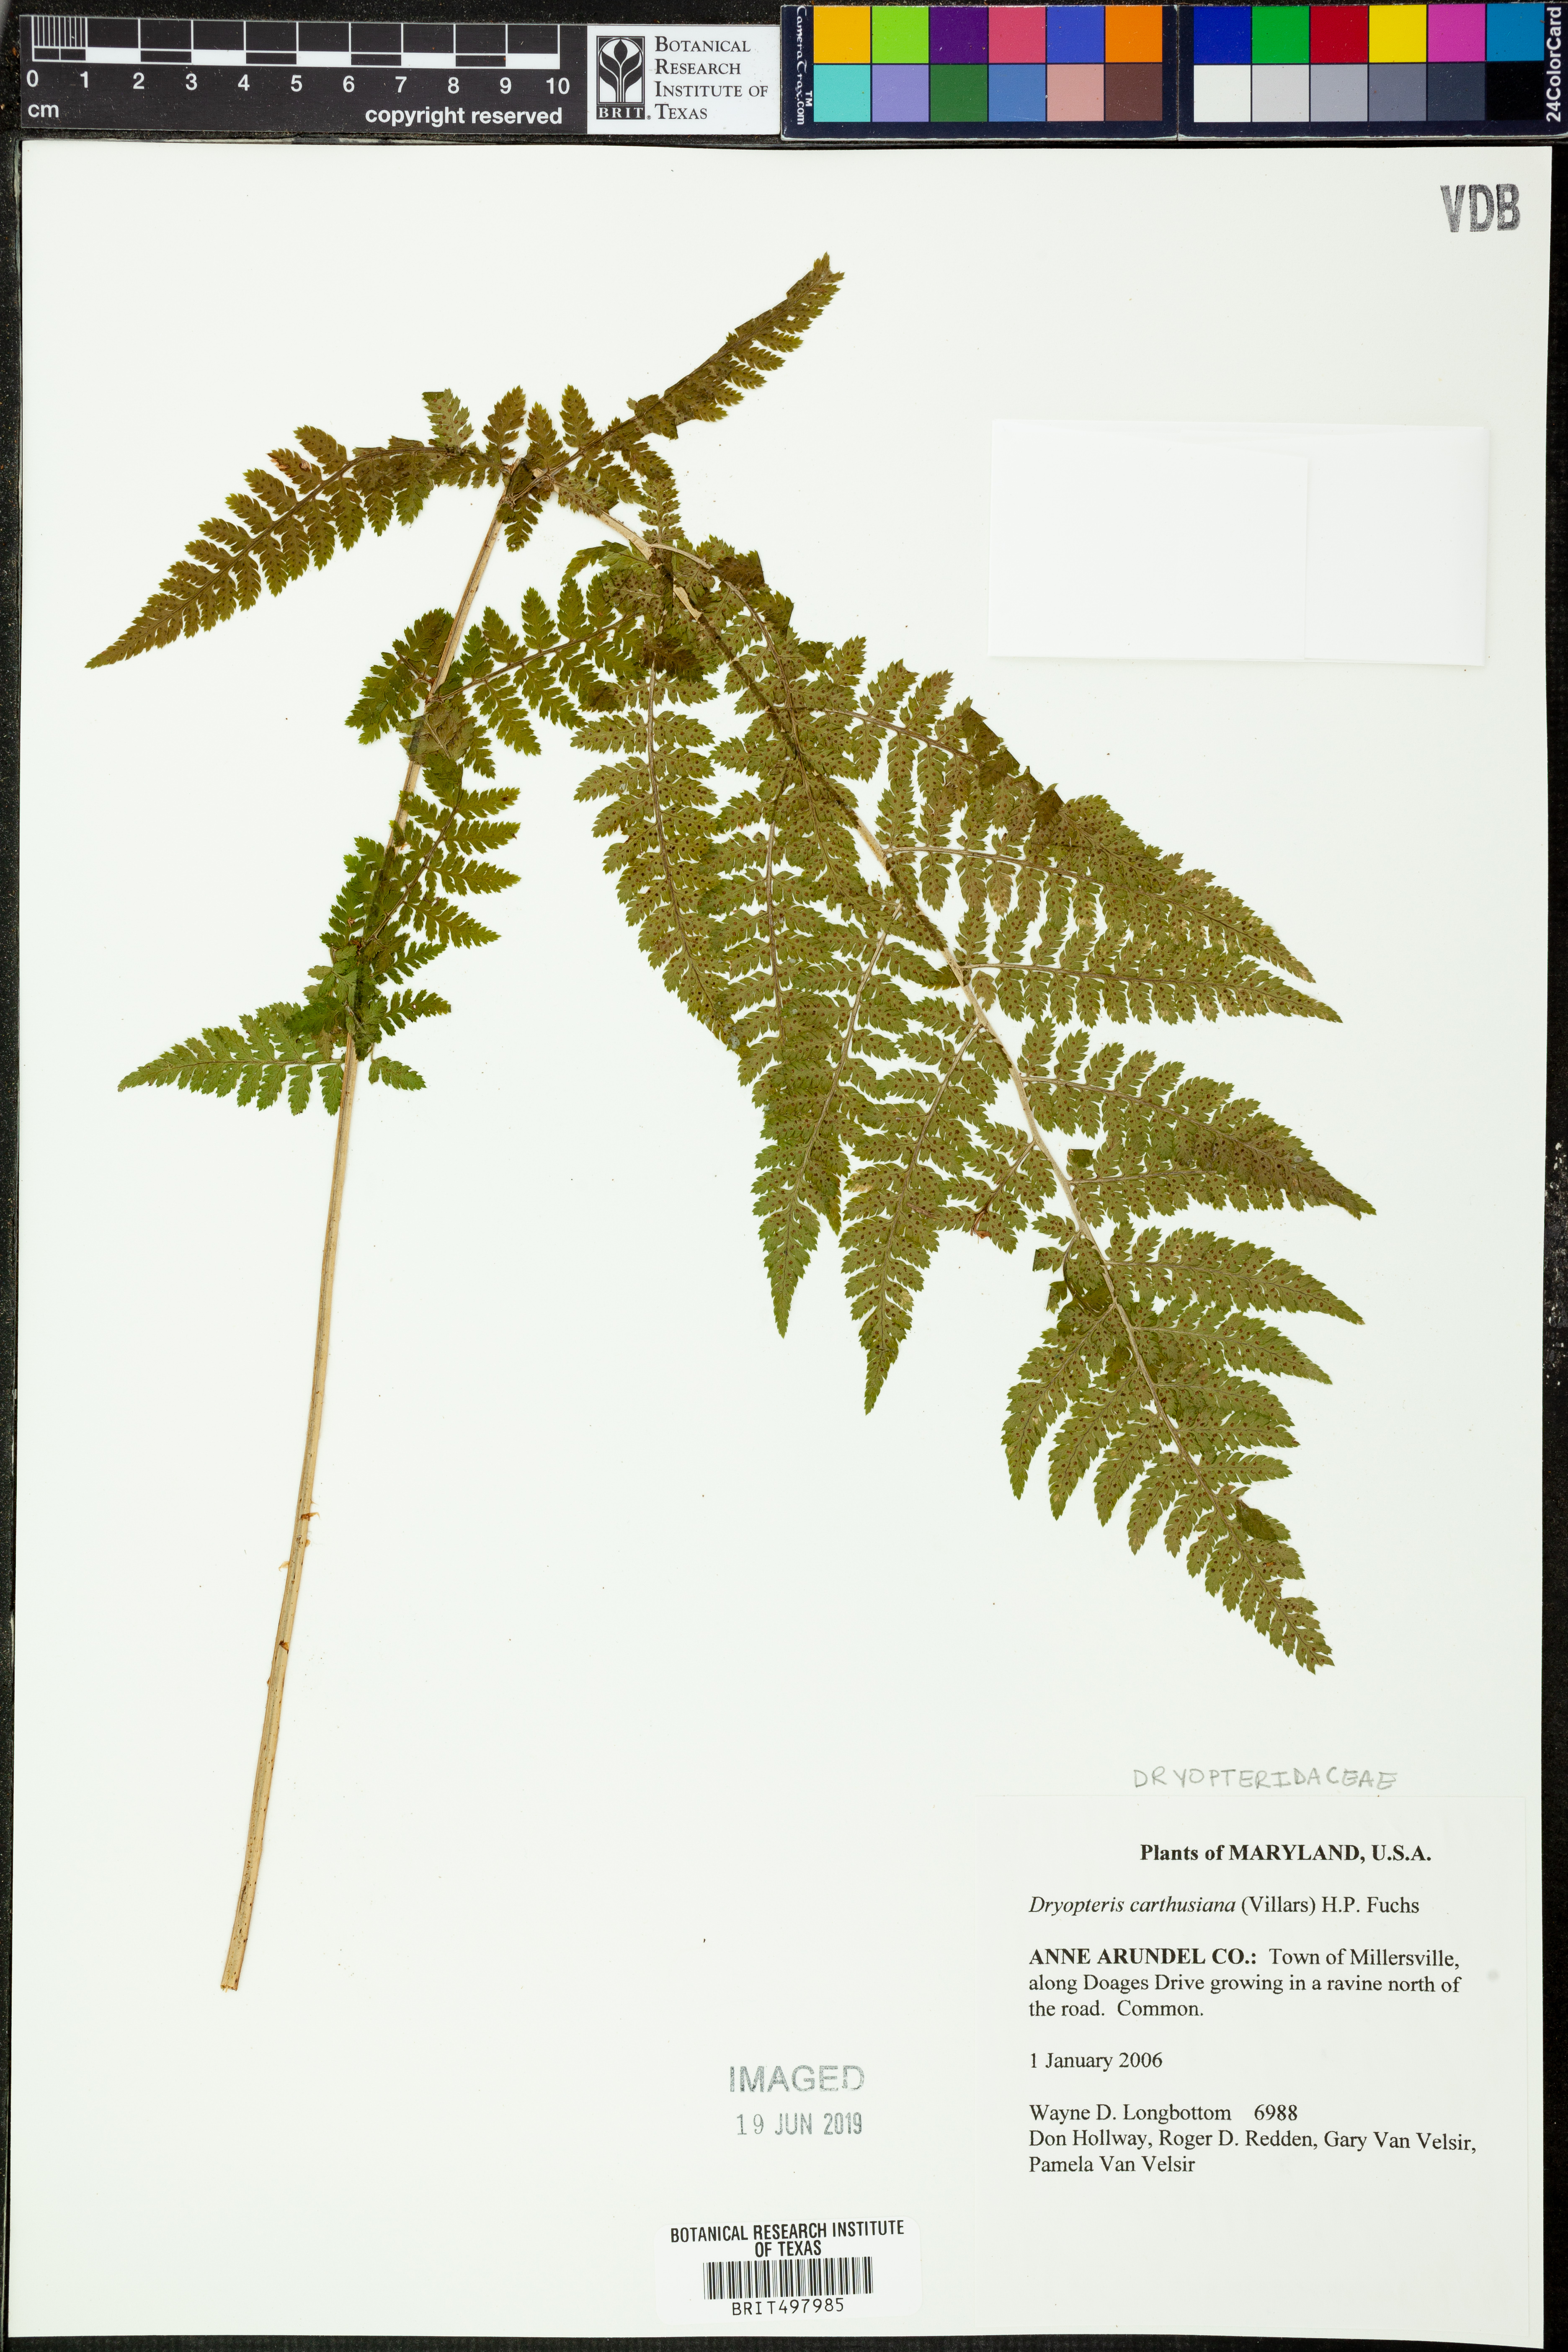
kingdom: Plantae
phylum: Tracheophyta
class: Polypodiopsida
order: Polypodiales
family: Dryopteridaceae
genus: Dryopteris
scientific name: Dryopteris carthusiana
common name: Narrow buckler-fern
